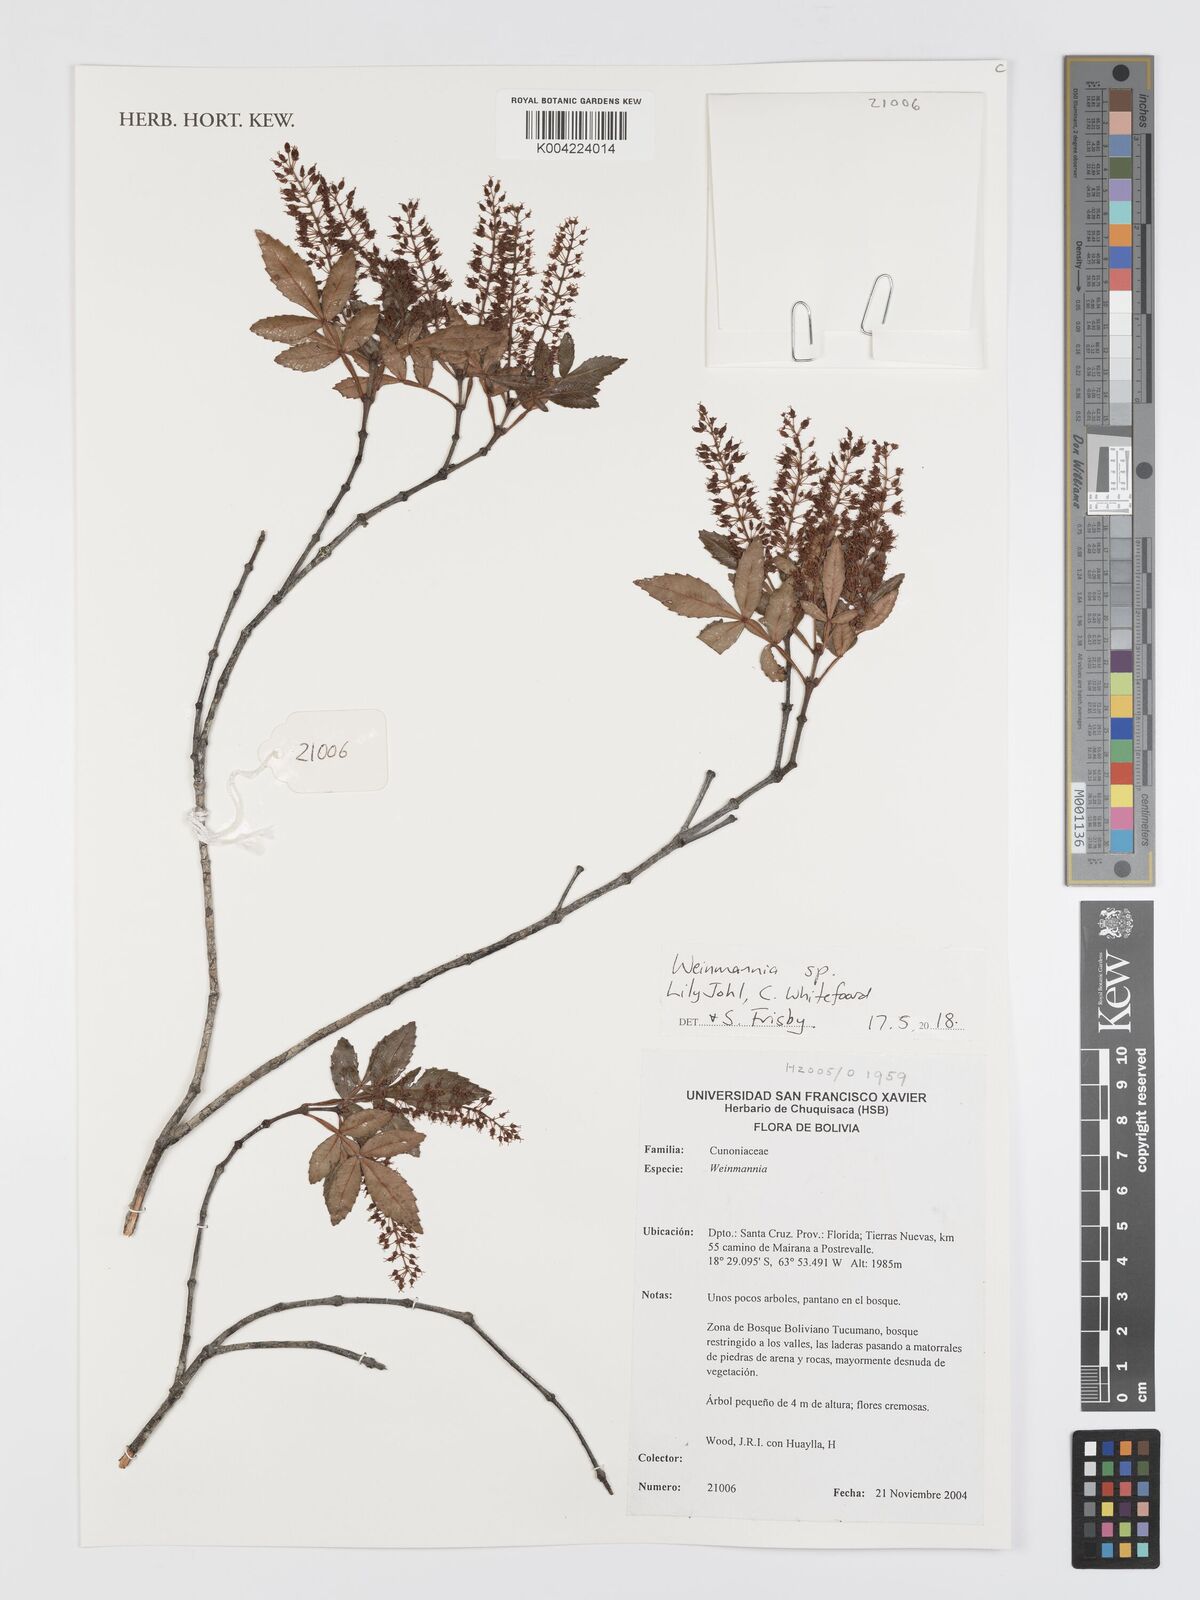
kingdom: Plantae
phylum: Tracheophyta
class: Magnoliopsida
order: Oxalidales
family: Cunoniaceae
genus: Weinmannia
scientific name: Weinmannia
